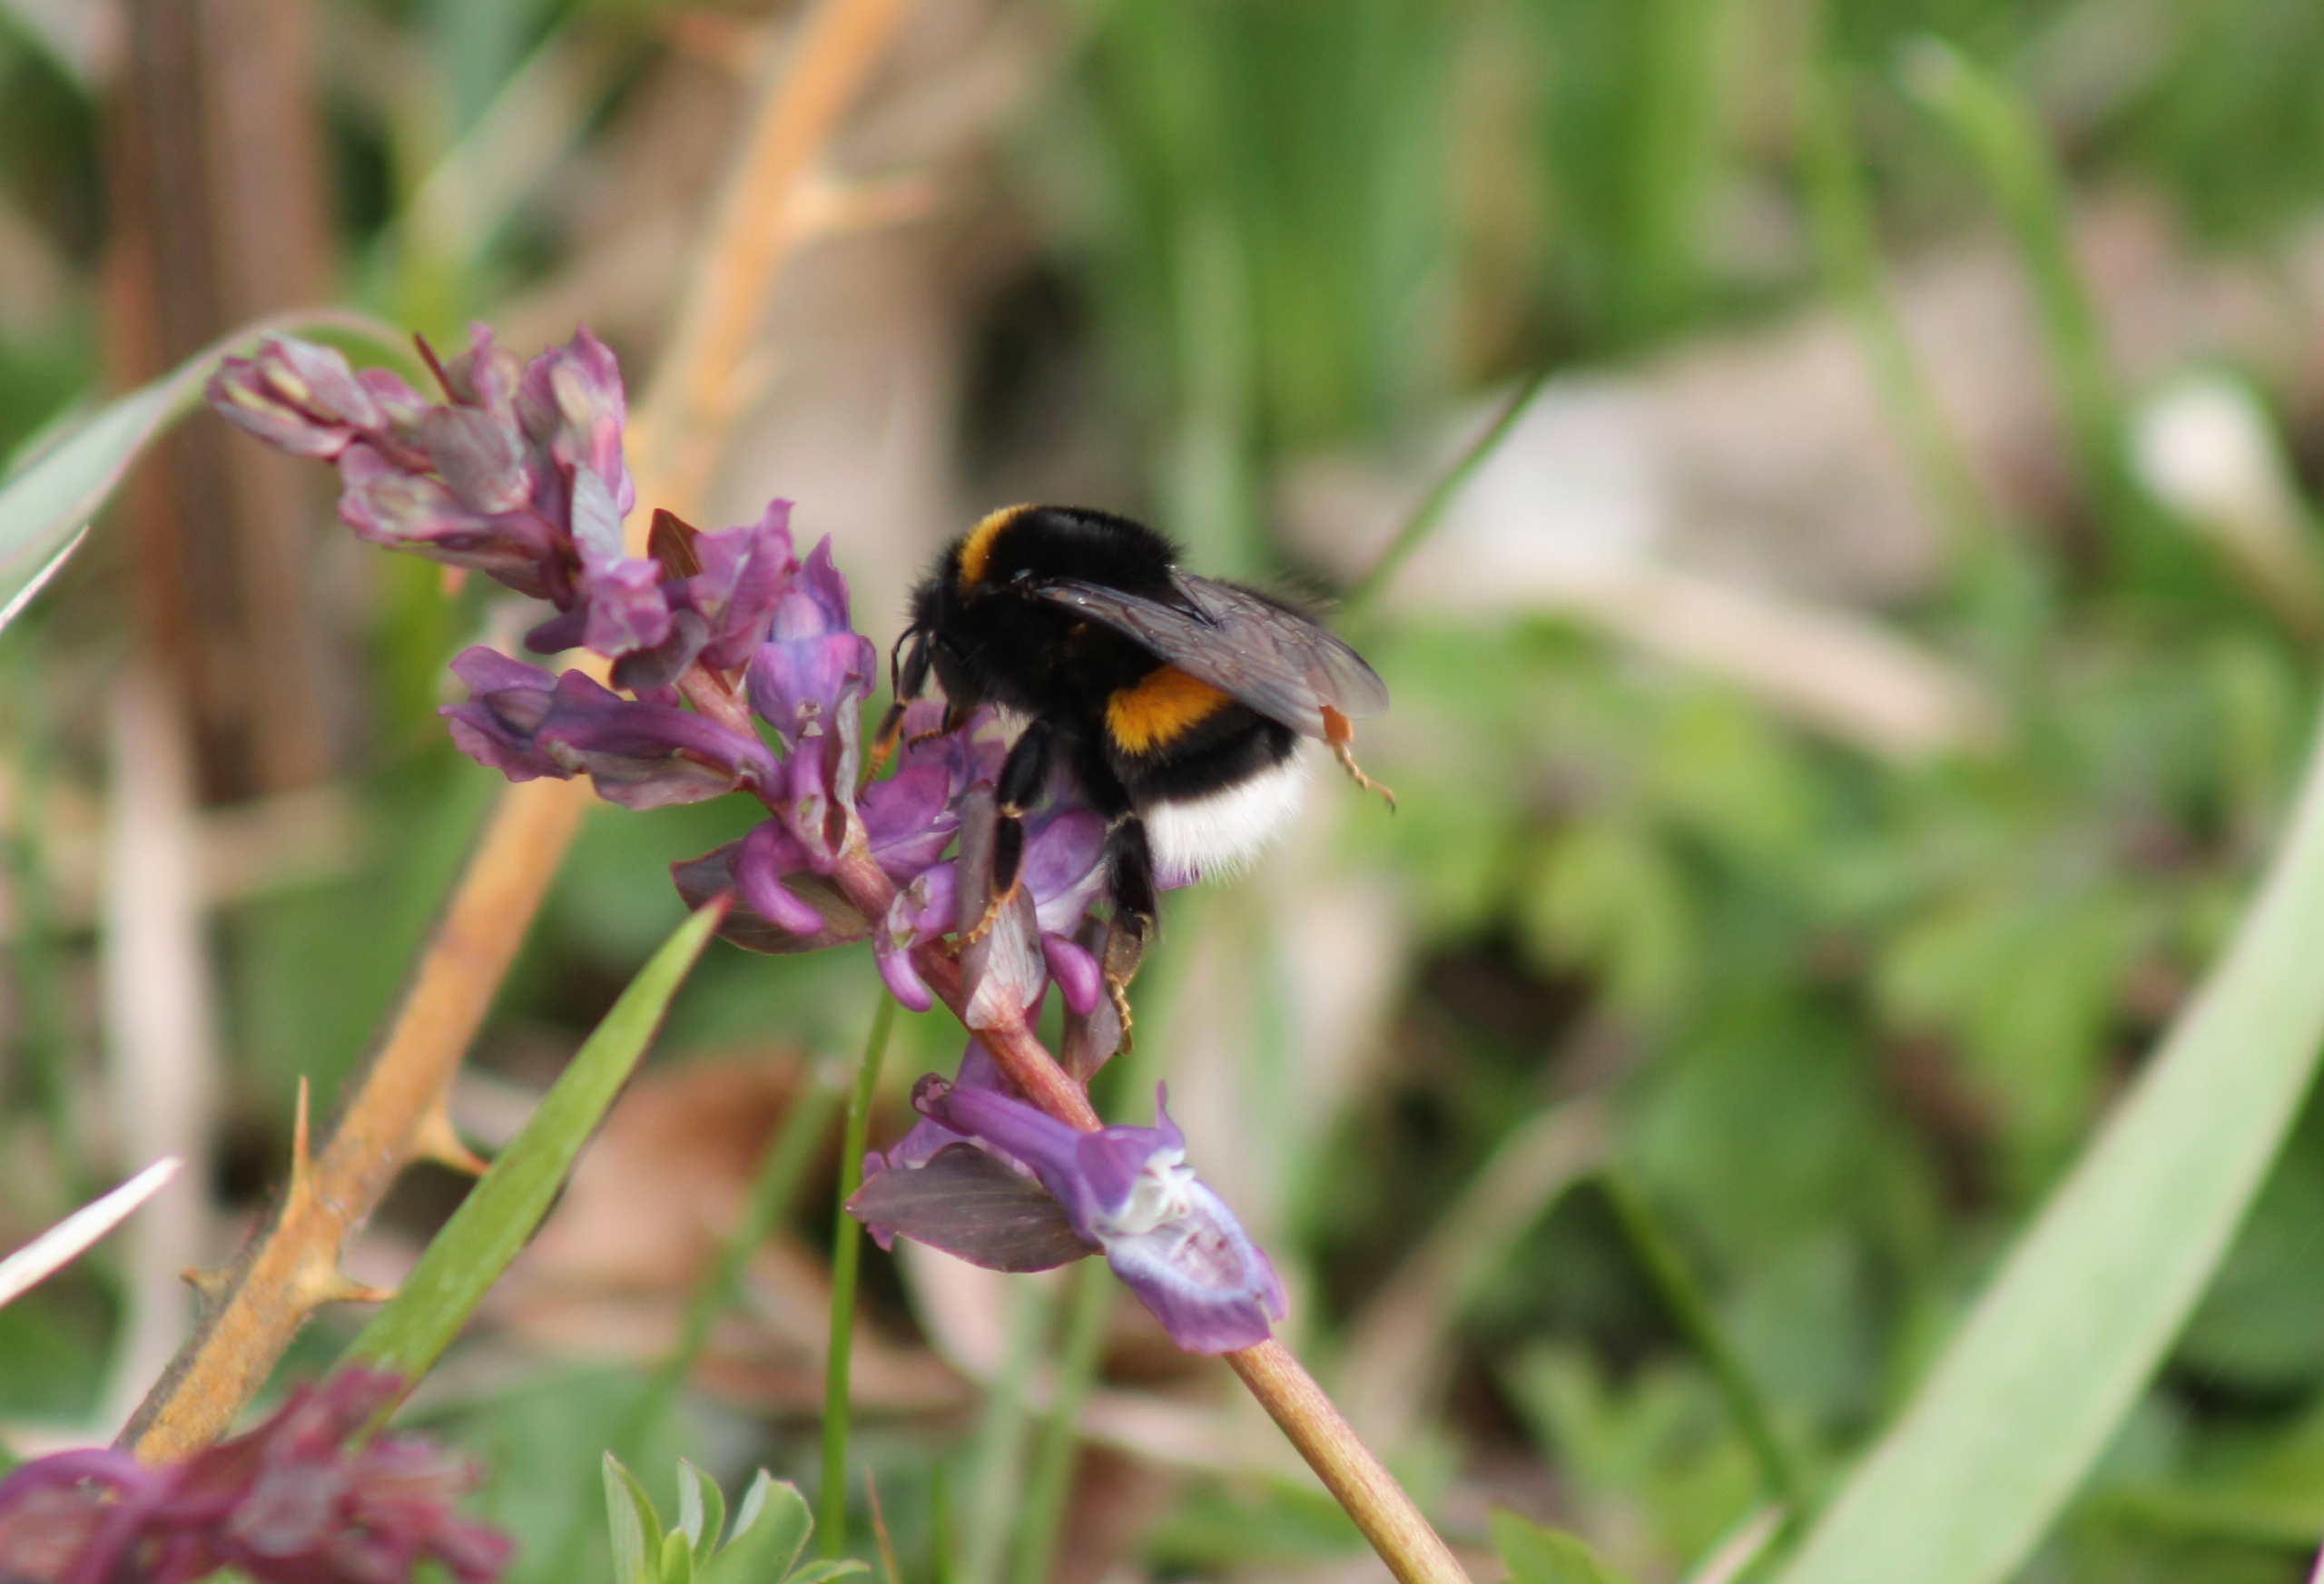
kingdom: Animalia
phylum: Arthropoda
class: Insecta
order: Hymenoptera
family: Apidae
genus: Bombus
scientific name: Bombus terrestris
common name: Mørk jordhumle
